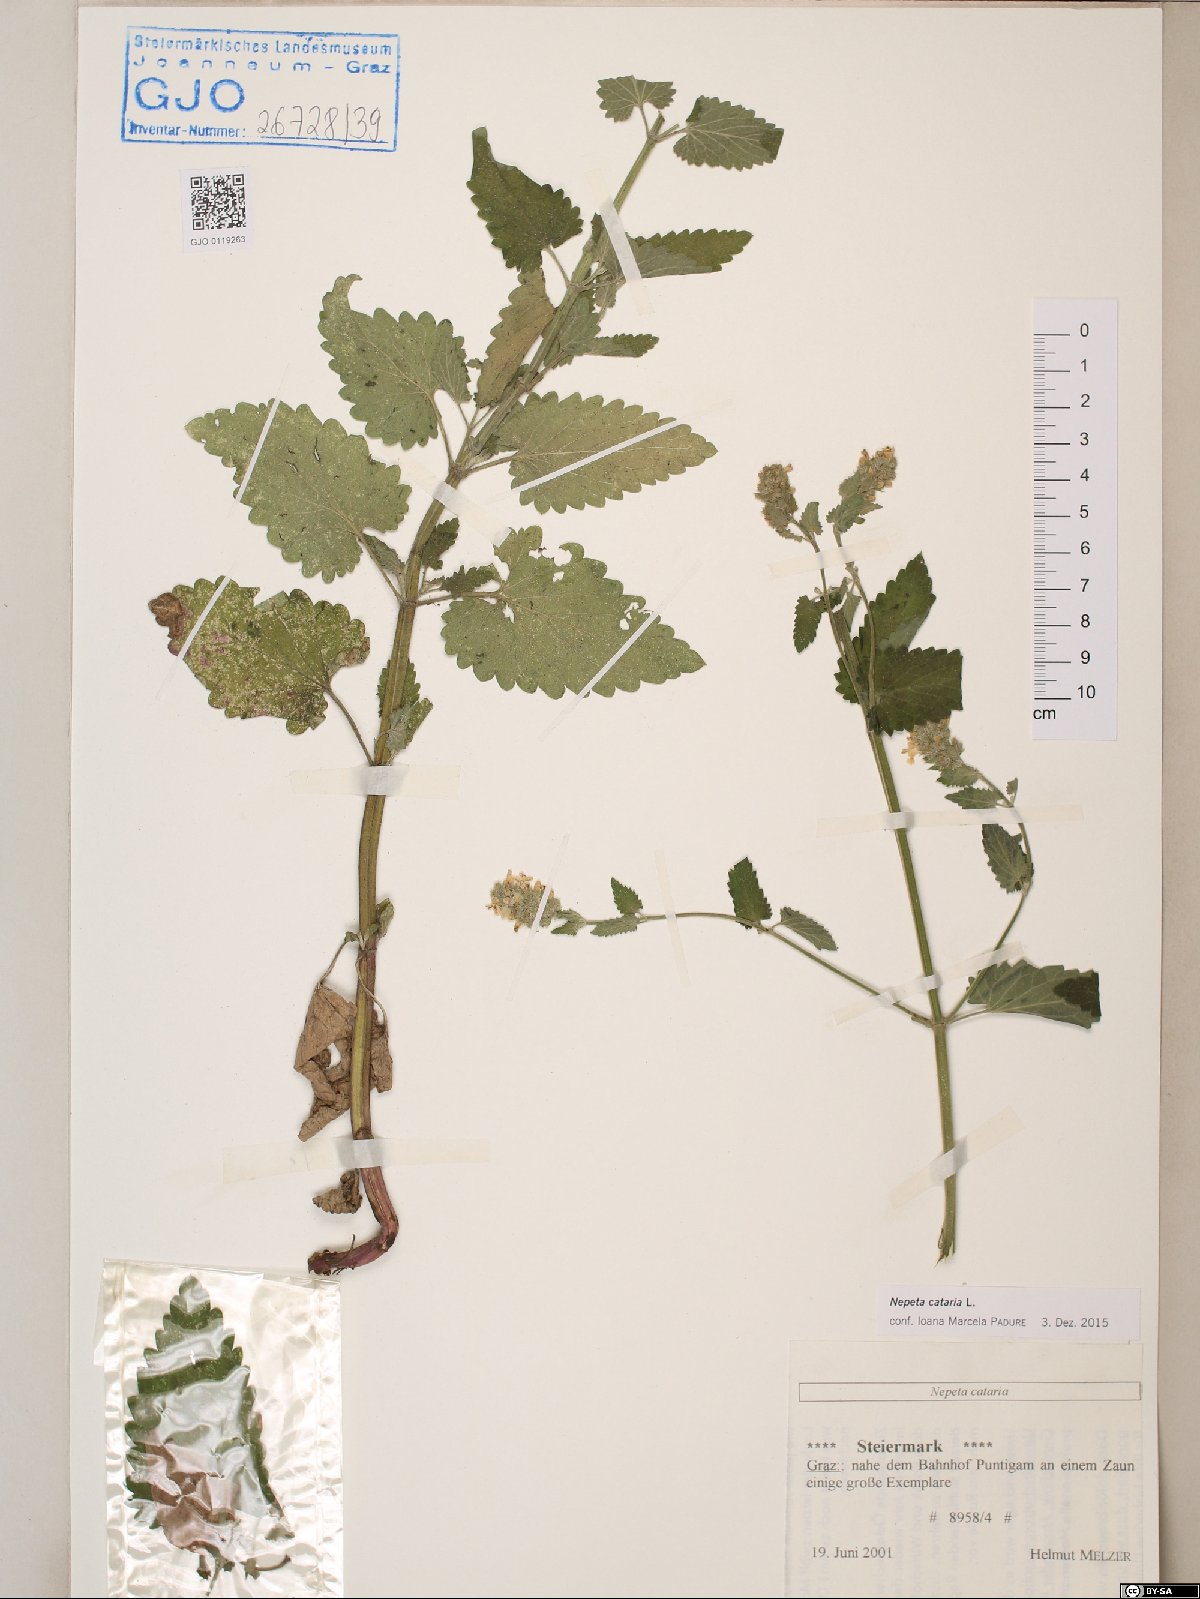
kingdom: Plantae
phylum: Tracheophyta
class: Magnoliopsida
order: Lamiales
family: Lamiaceae
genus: Nepeta
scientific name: Nepeta cataria
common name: Catnip
